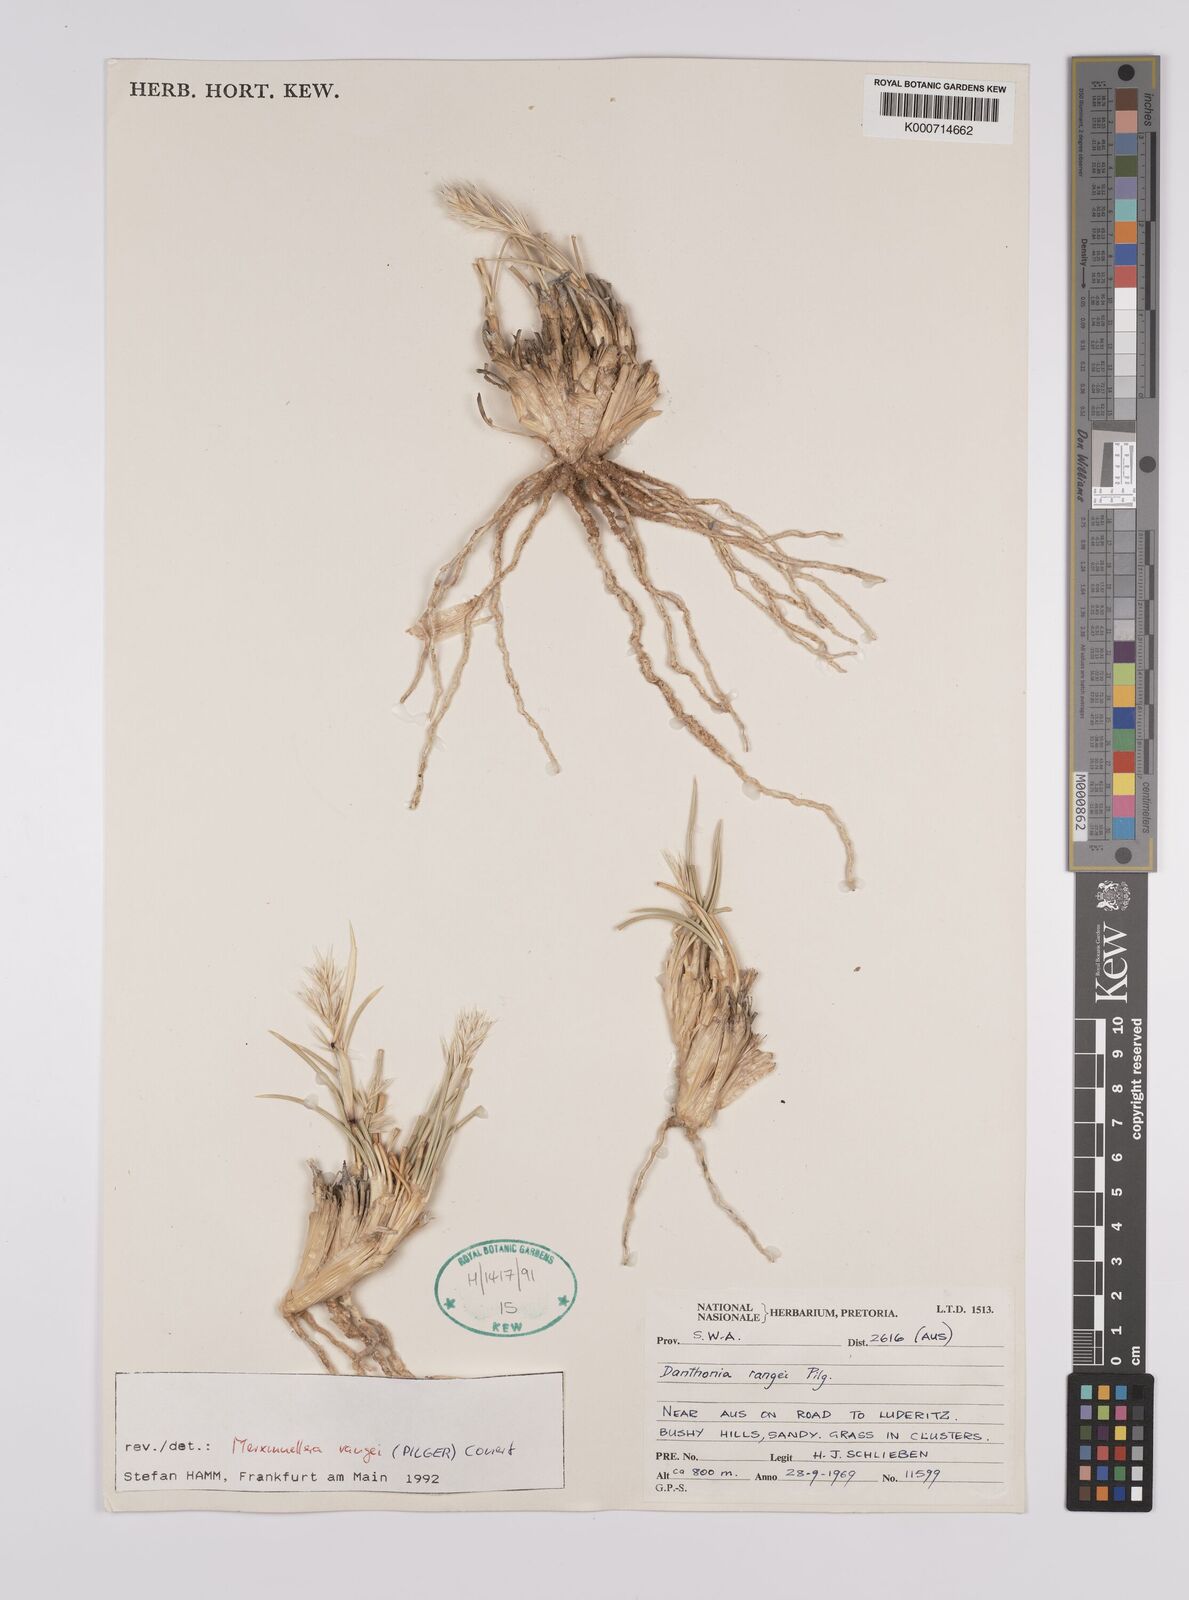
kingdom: Plantae
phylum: Tracheophyta
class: Liliopsida
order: Poales
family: Poaceae
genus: Rytidosperma
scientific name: Rytidosperma
